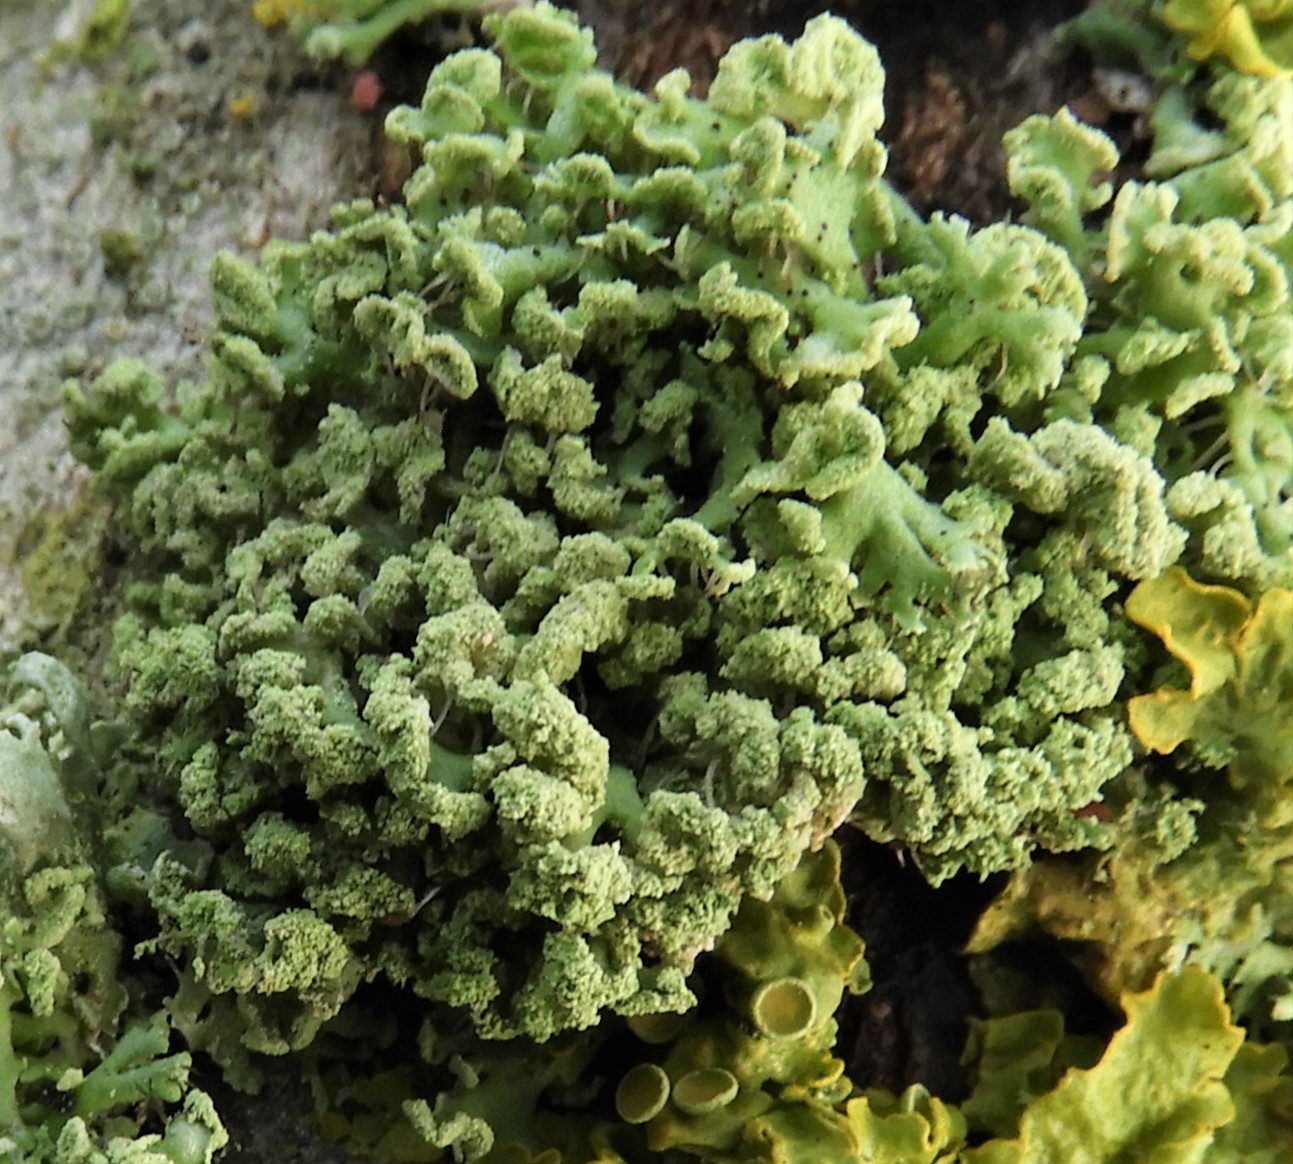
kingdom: Fungi
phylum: Ascomycota
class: Lecanoromycetes
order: Caliciales
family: Physciaceae
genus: Physcia
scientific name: Physcia tenella
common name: spæd rosetlav
